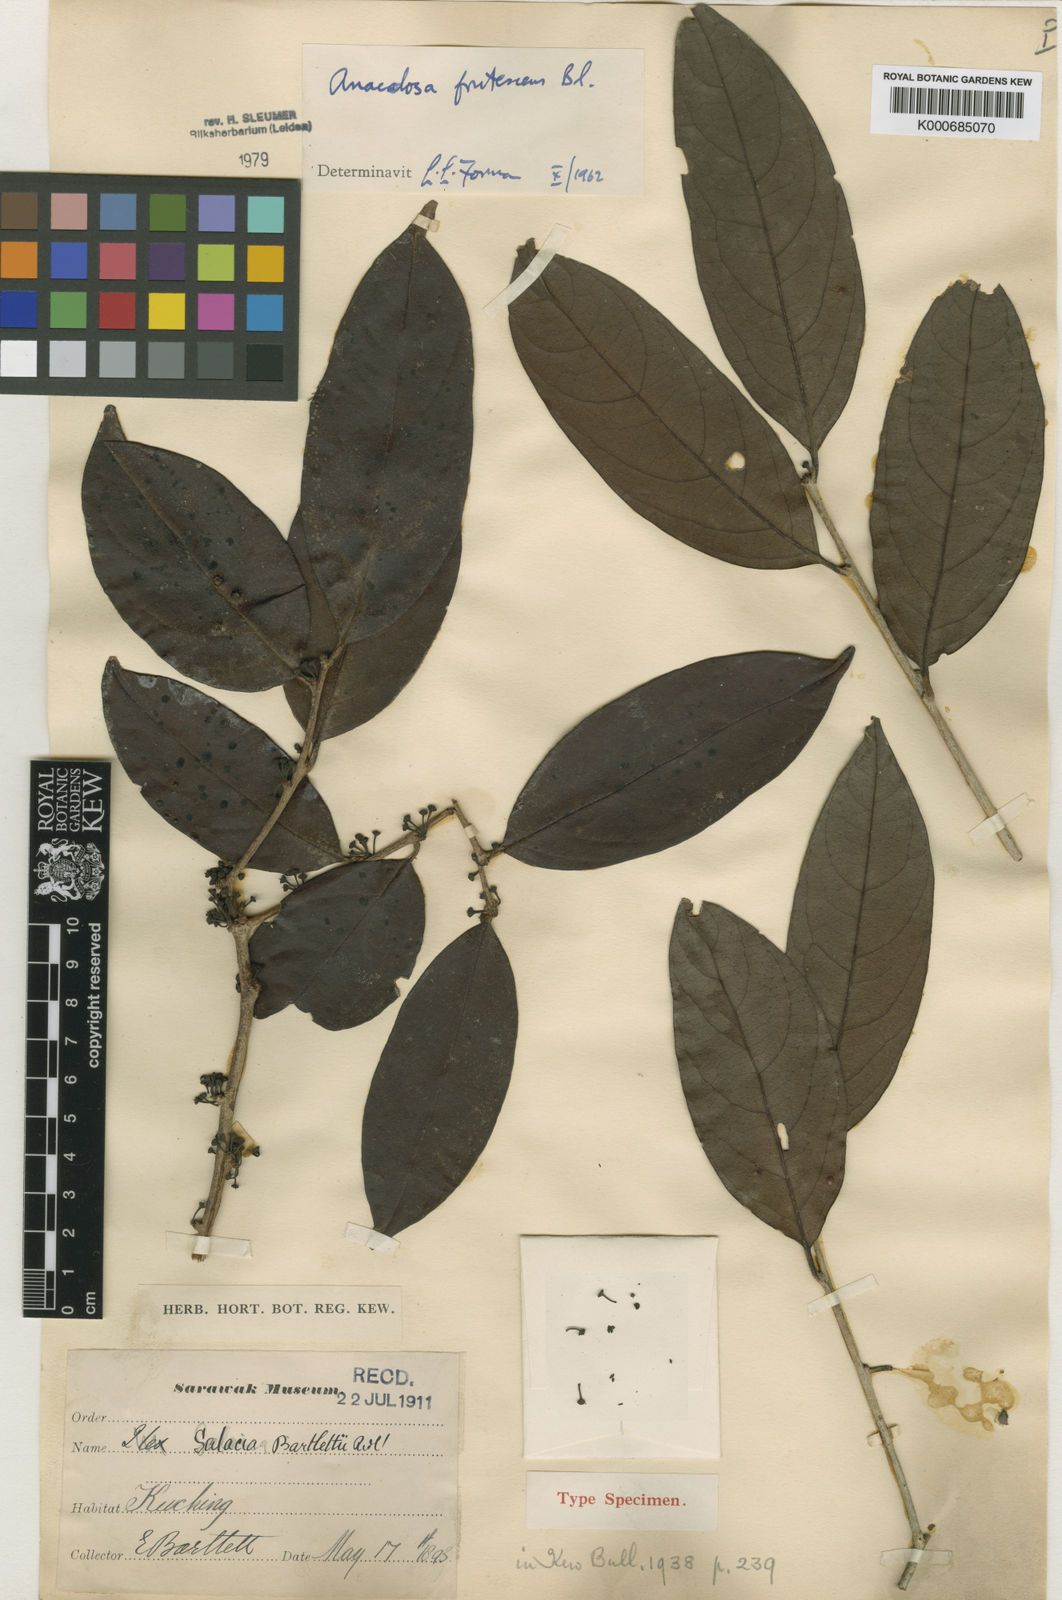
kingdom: Plantae
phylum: Tracheophyta
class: Magnoliopsida
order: Santalales
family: Aptandraceae
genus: Anacolosa
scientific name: Anacolosa frutescens
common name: Galo nut
